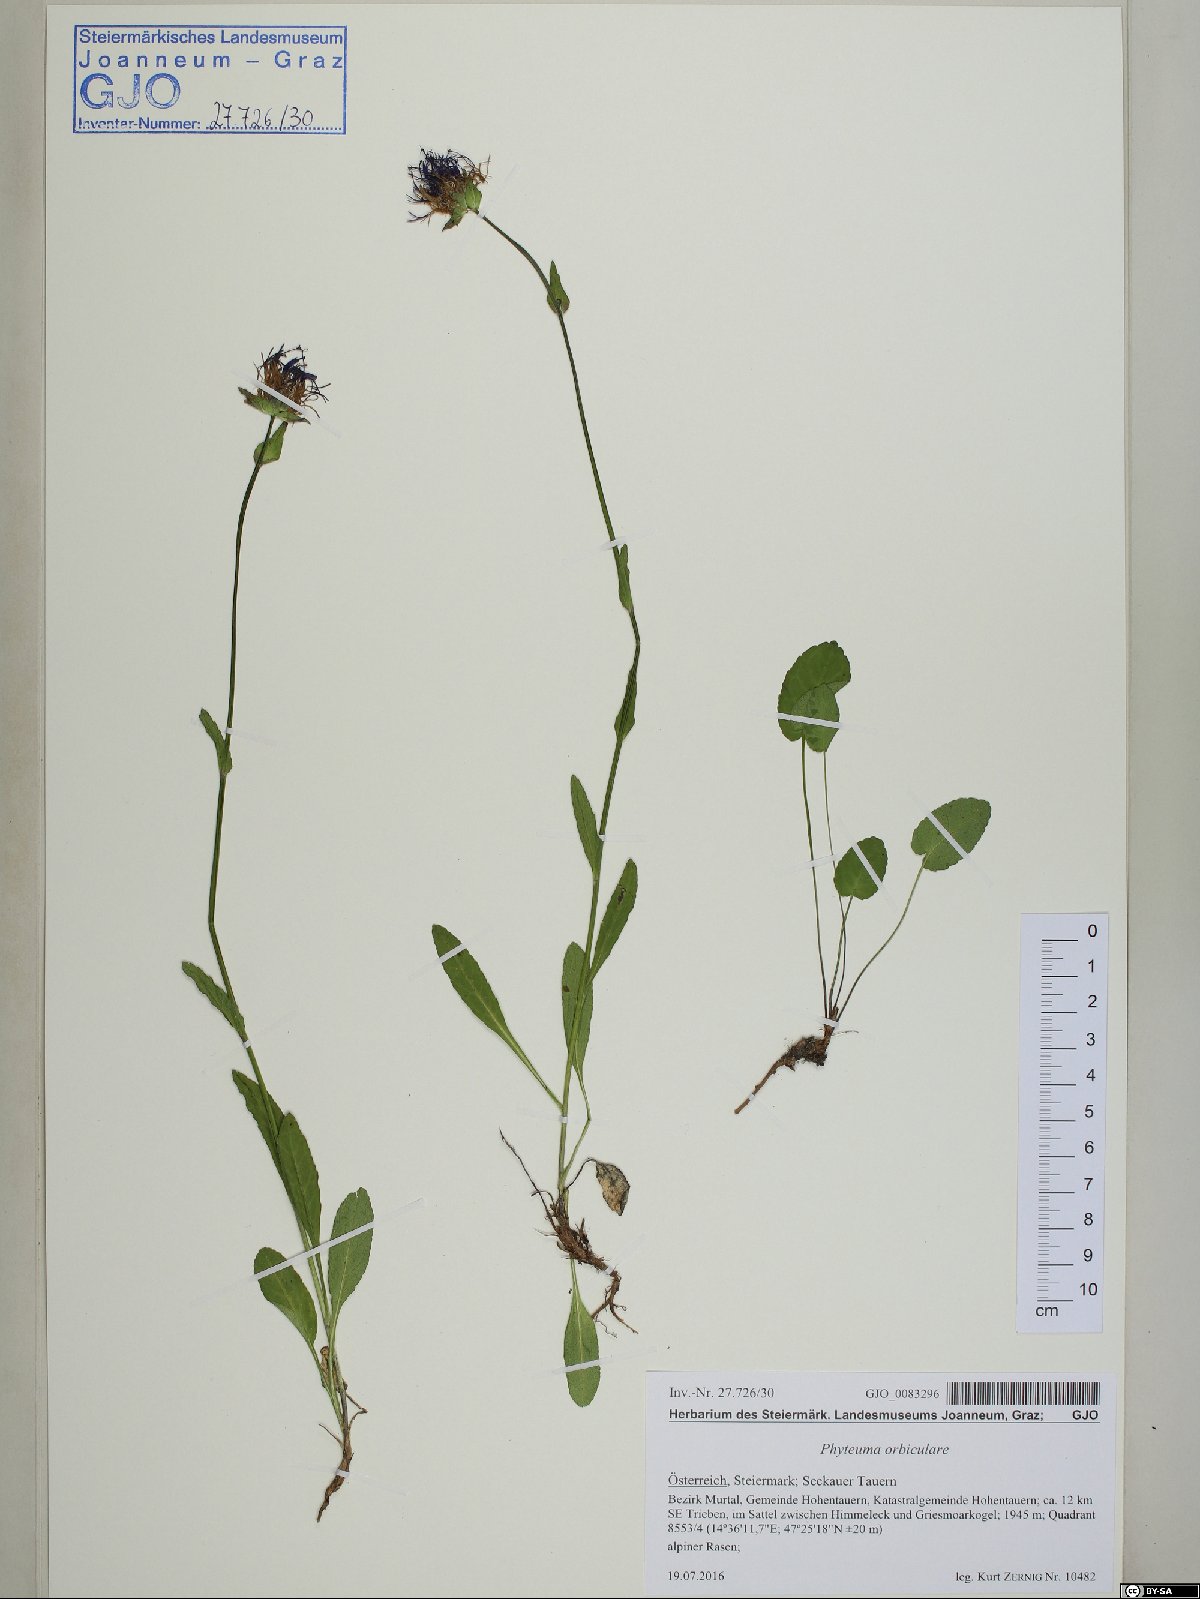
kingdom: Plantae
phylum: Tracheophyta
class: Magnoliopsida
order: Asterales
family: Campanulaceae
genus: Phyteuma
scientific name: Phyteuma orbiculare
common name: Round-headed rampion
